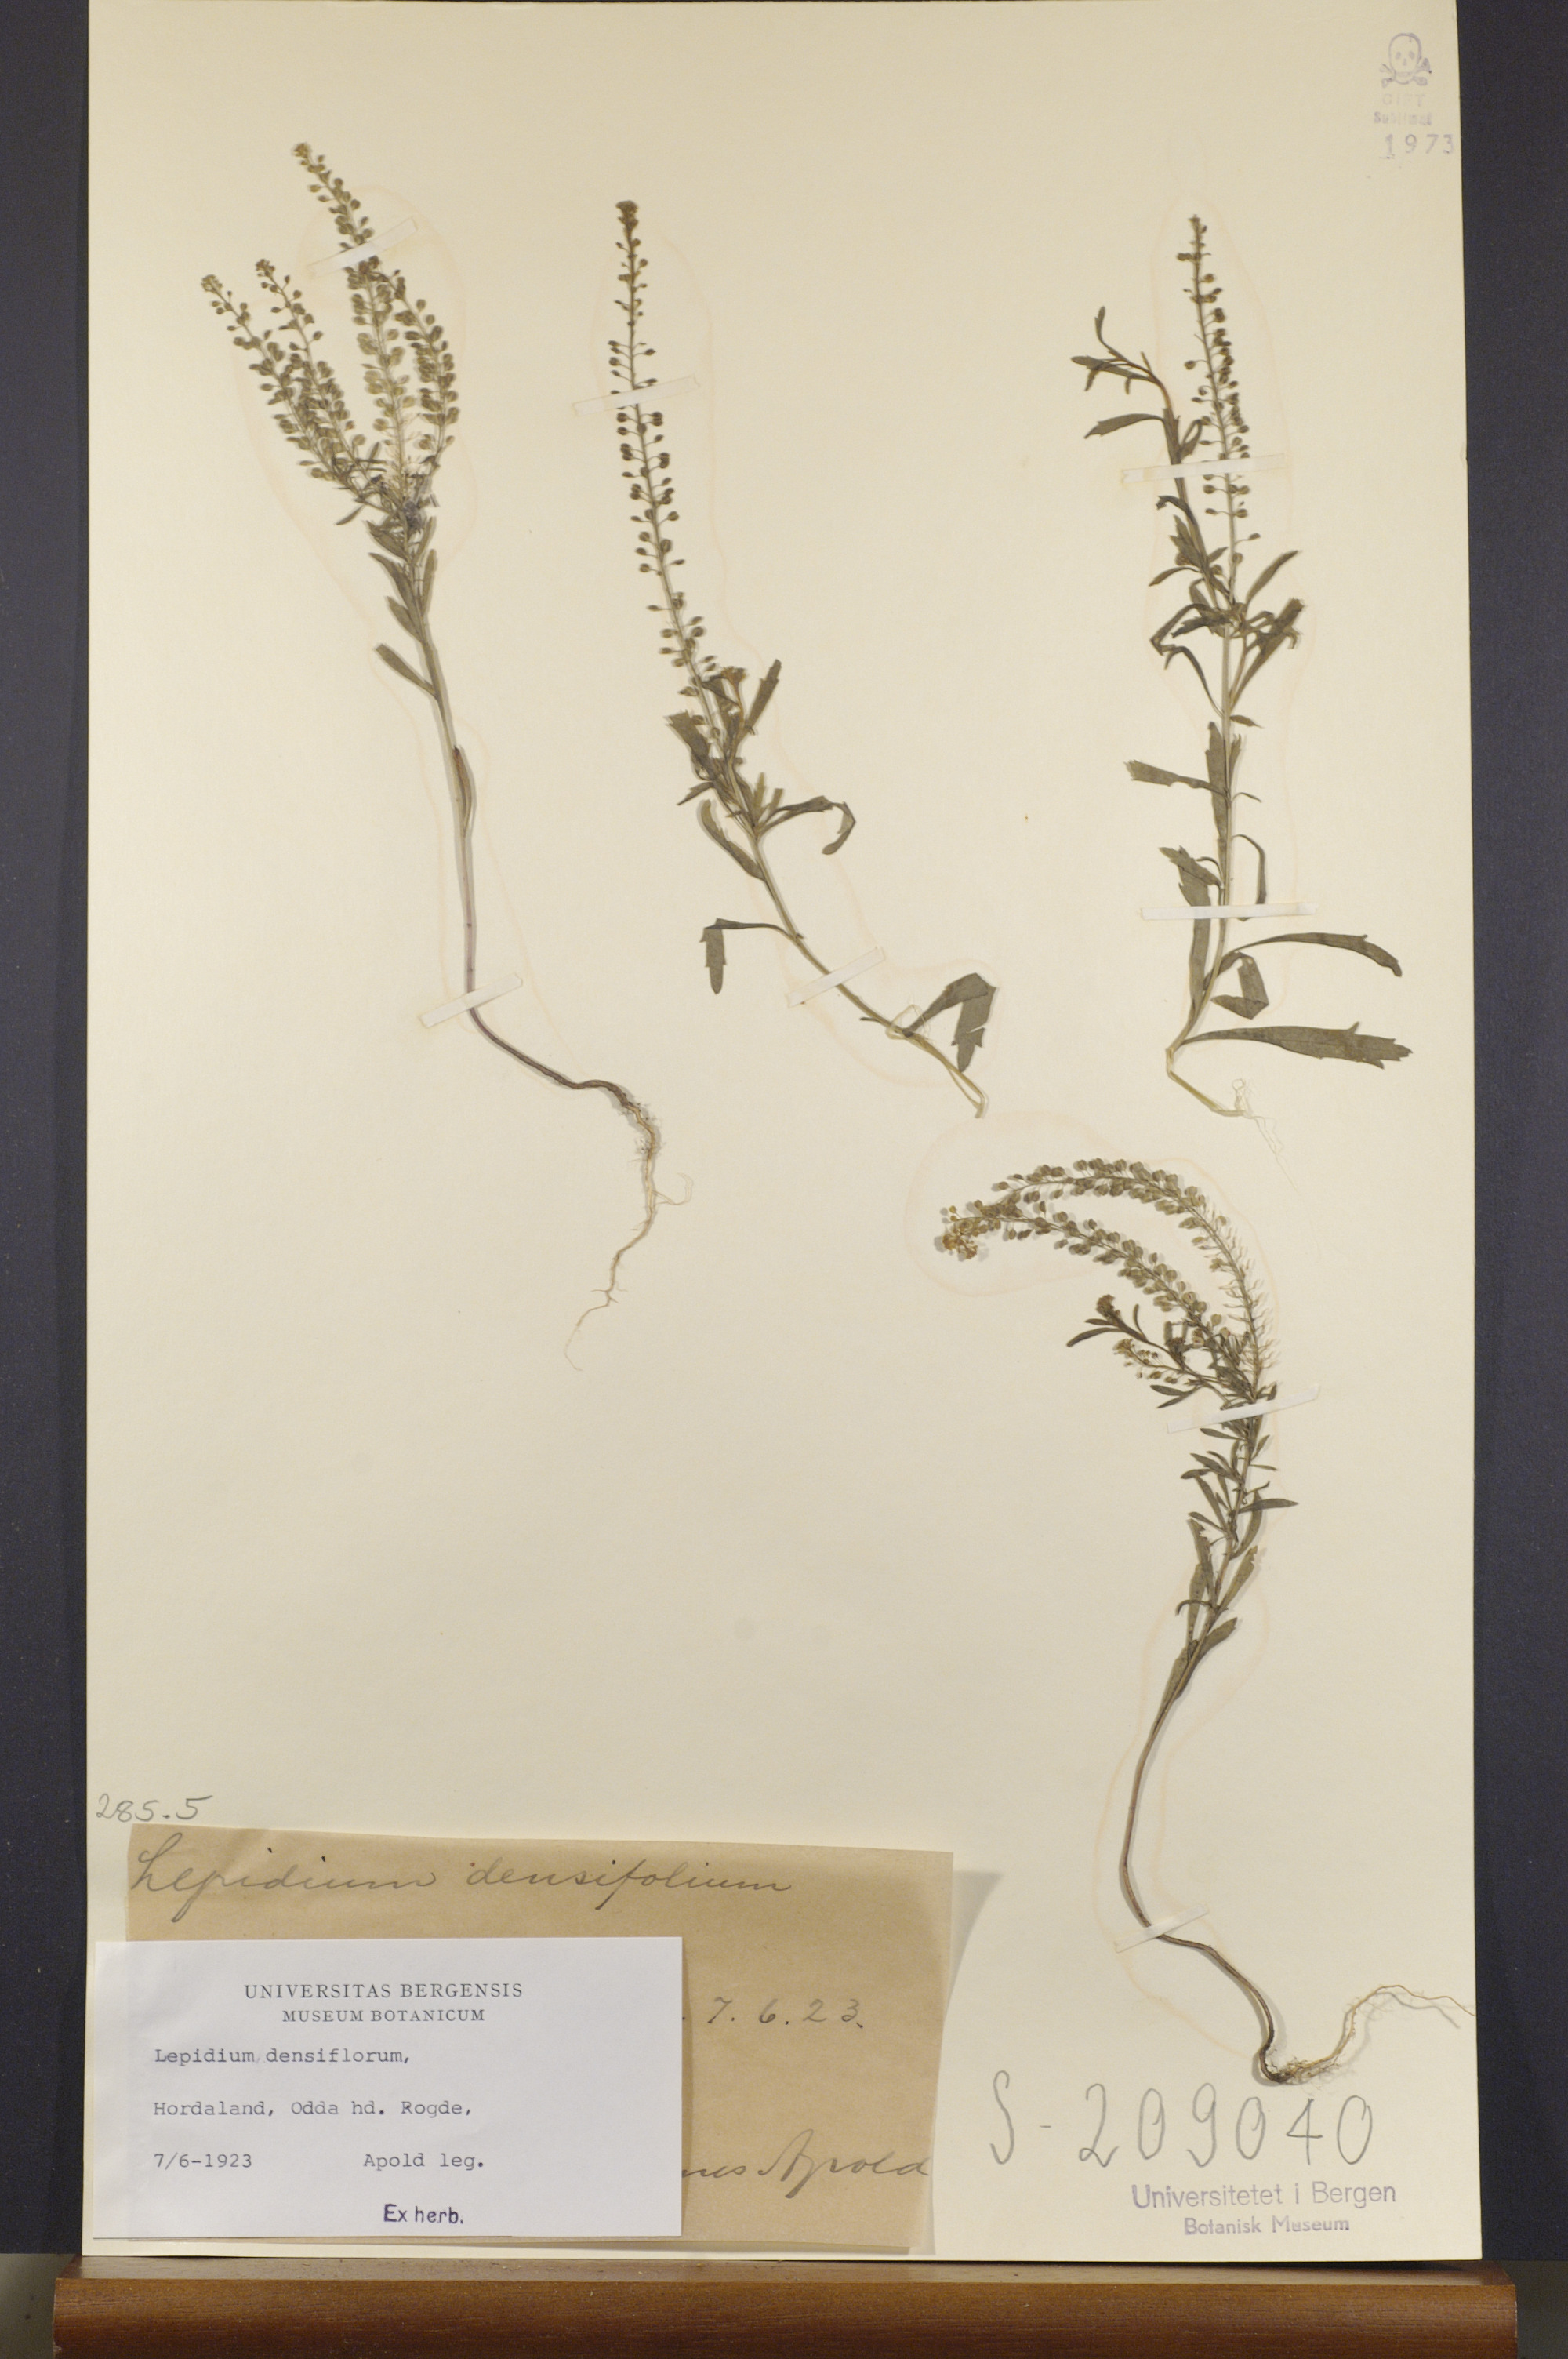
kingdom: Plantae
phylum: Tracheophyta
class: Magnoliopsida
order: Brassicales
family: Brassicaceae
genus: Lepidium
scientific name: Lepidium densiflorum
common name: Miner's pepperwort
